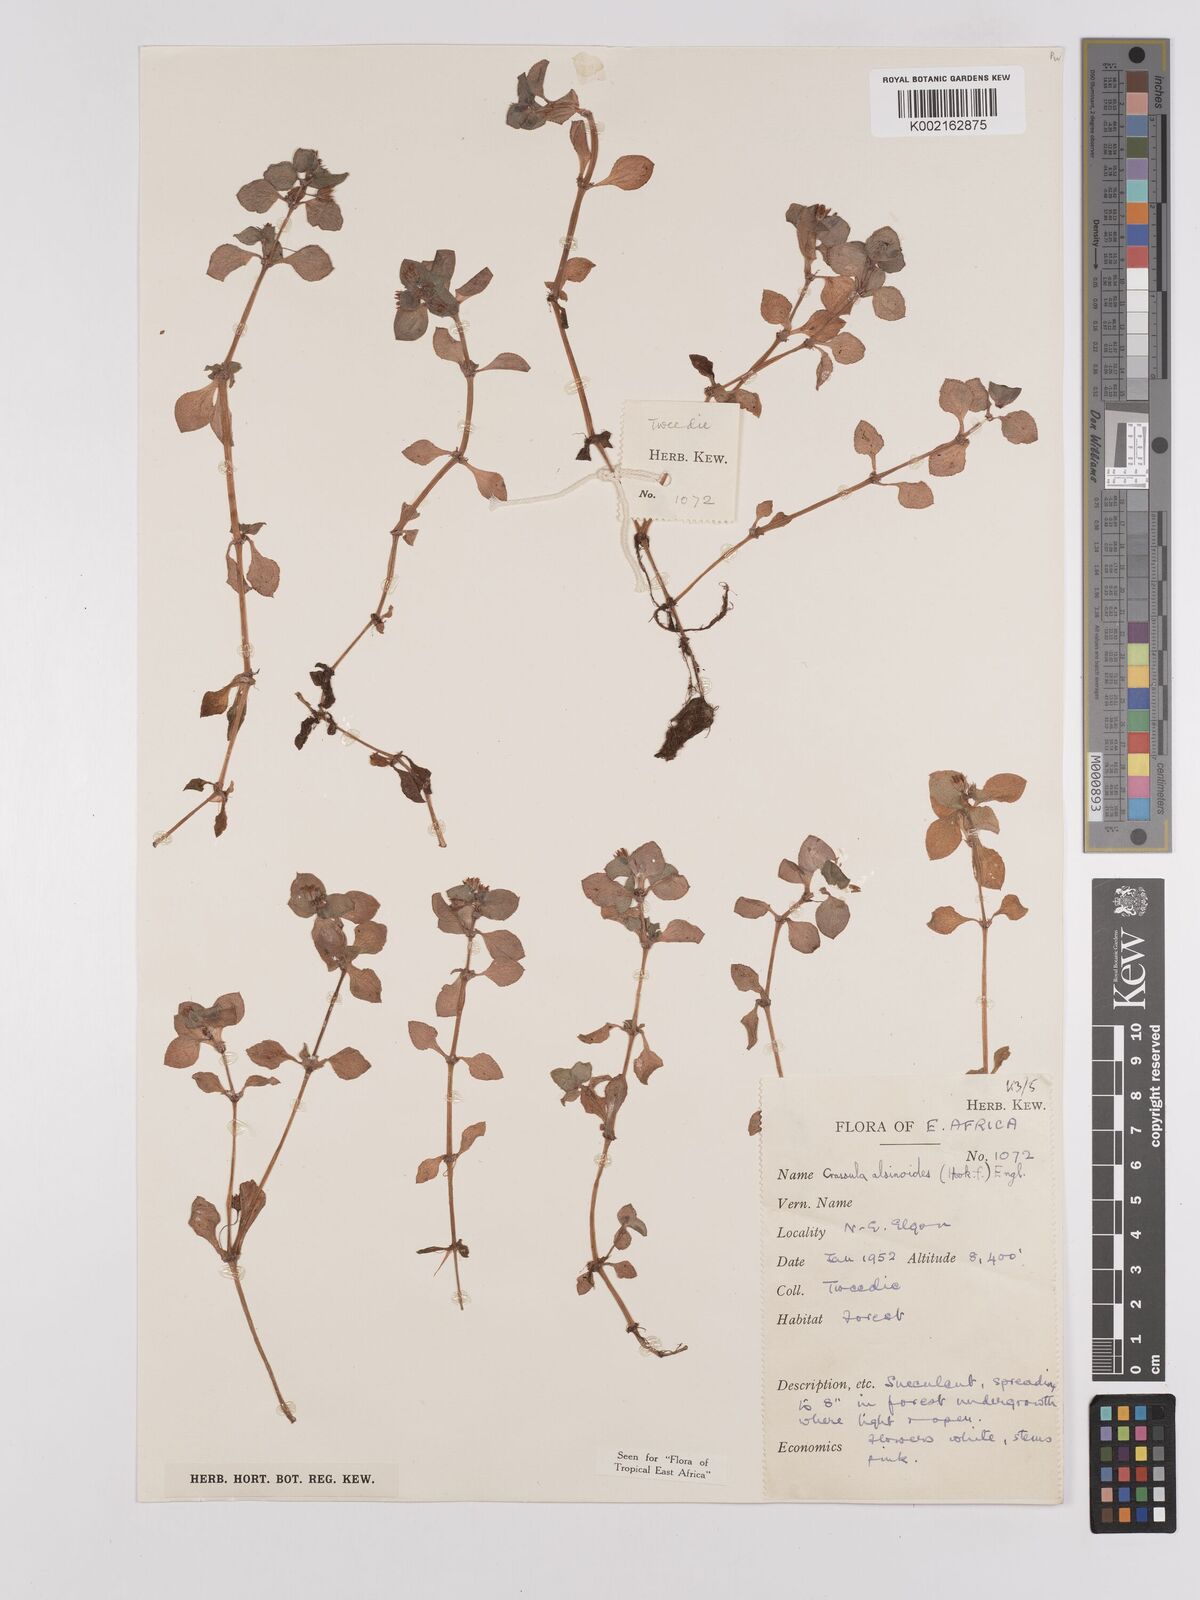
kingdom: Plantae
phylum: Tracheophyta
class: Magnoliopsida
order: Saxifragales
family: Crassulaceae
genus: Crassula
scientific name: Crassula alsinoides
